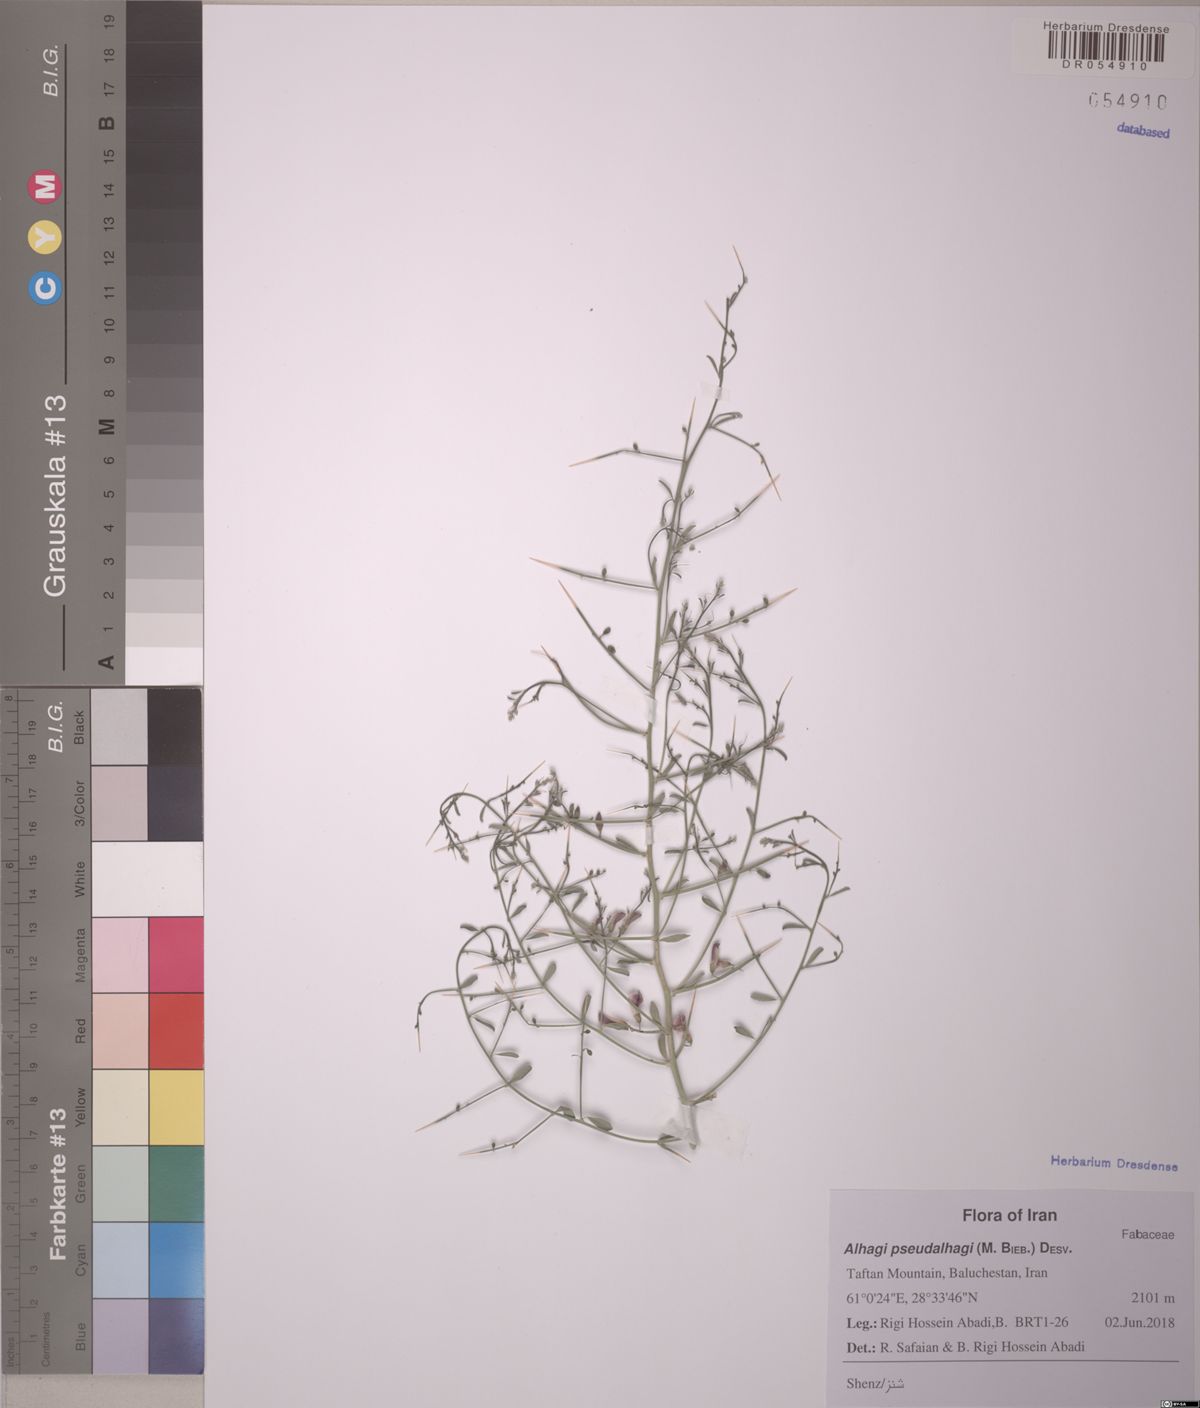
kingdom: Plantae
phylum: Tracheophyta
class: Magnoliopsida
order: Fabales
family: Fabaceae
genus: Alhagi
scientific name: Alhagi maurorum
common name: Camelthorn
